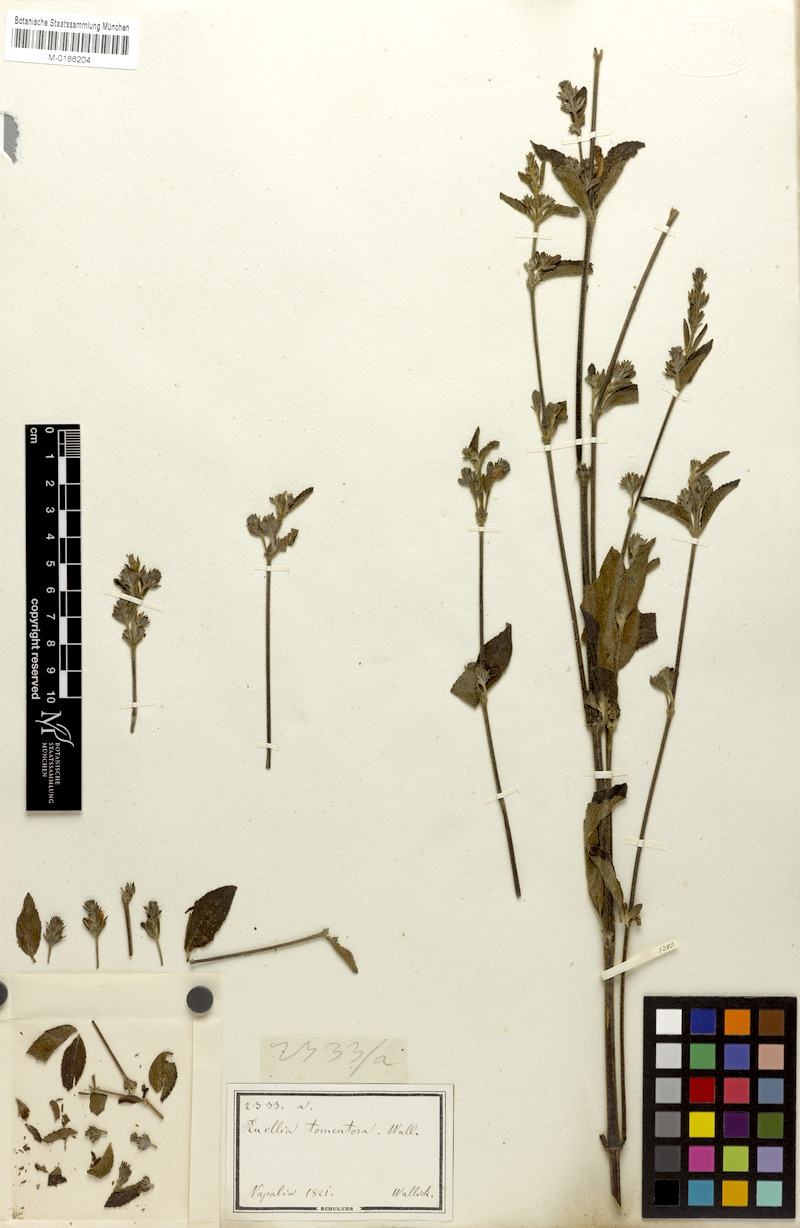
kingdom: Plantae
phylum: Tracheophyta
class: Magnoliopsida
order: Lamiales
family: Acanthaceae
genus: Strobilanthes
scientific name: Strobilanthes tomentosa
